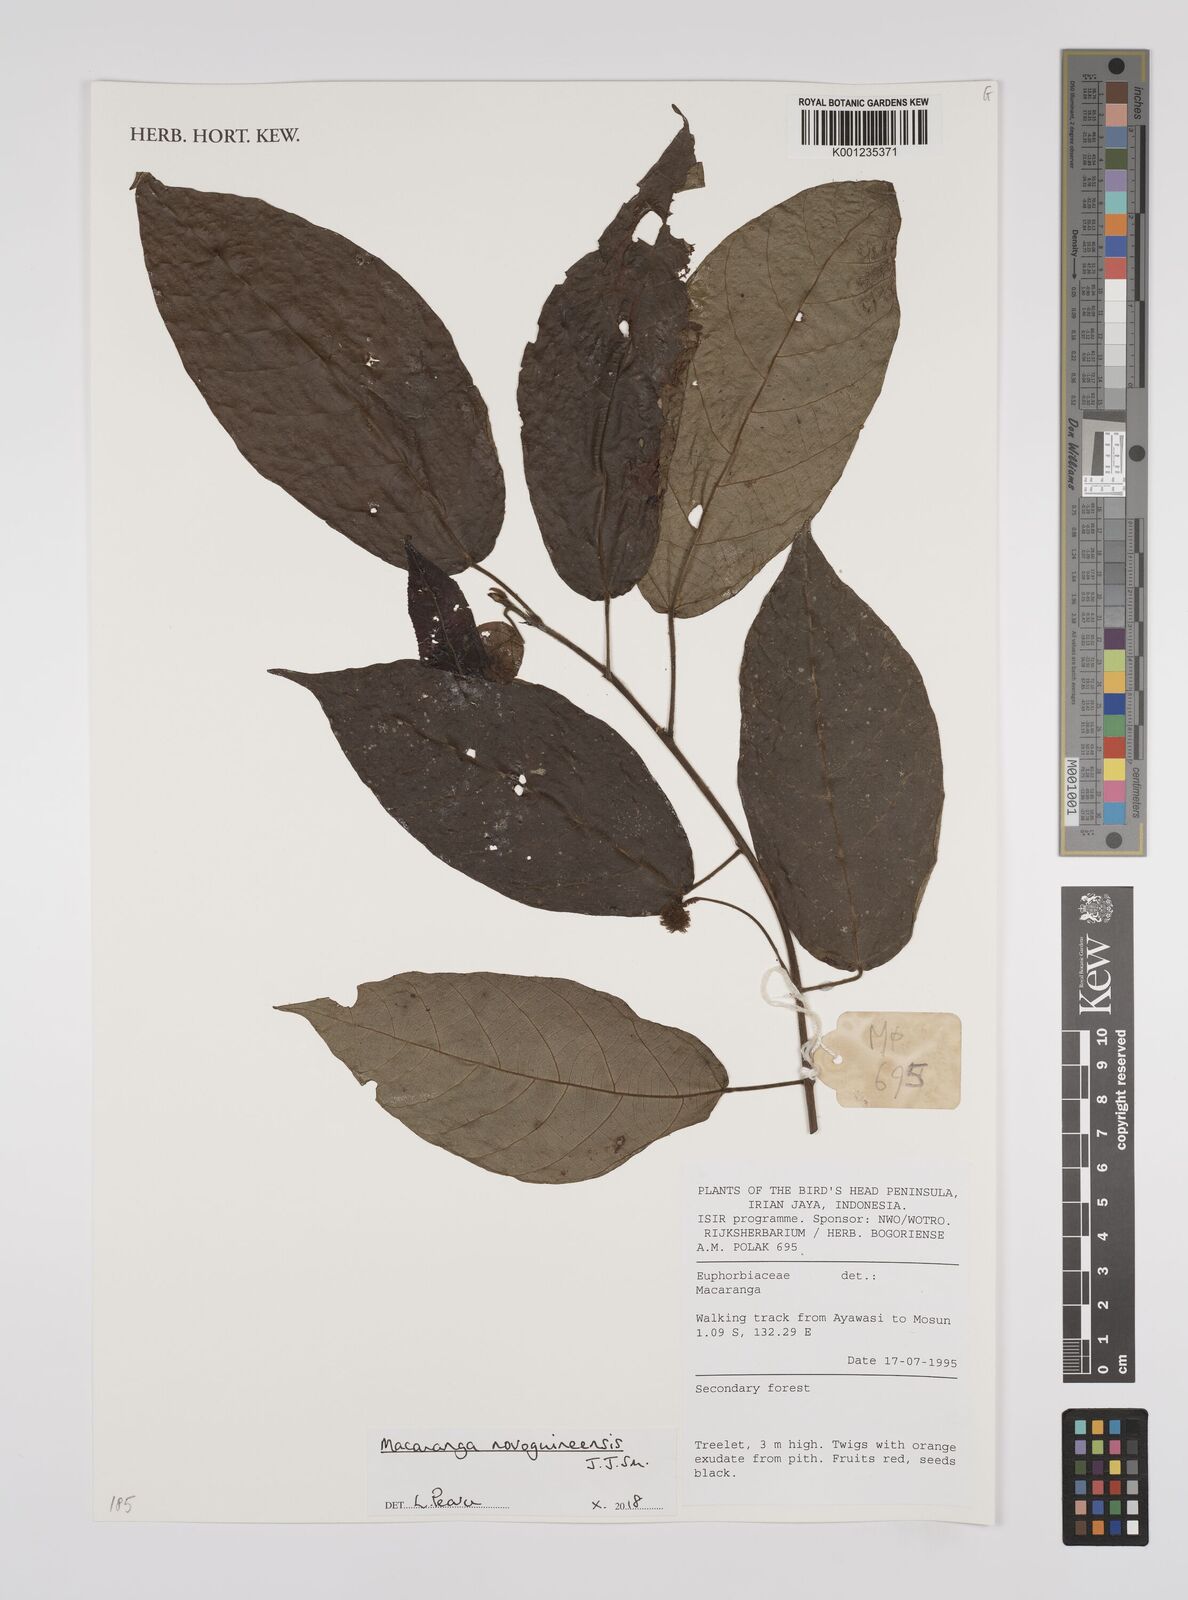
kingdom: Plantae
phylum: Tracheophyta
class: Magnoliopsida
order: Malpighiales
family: Euphorbiaceae
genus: Macaranga
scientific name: Macaranga novoguineensis
